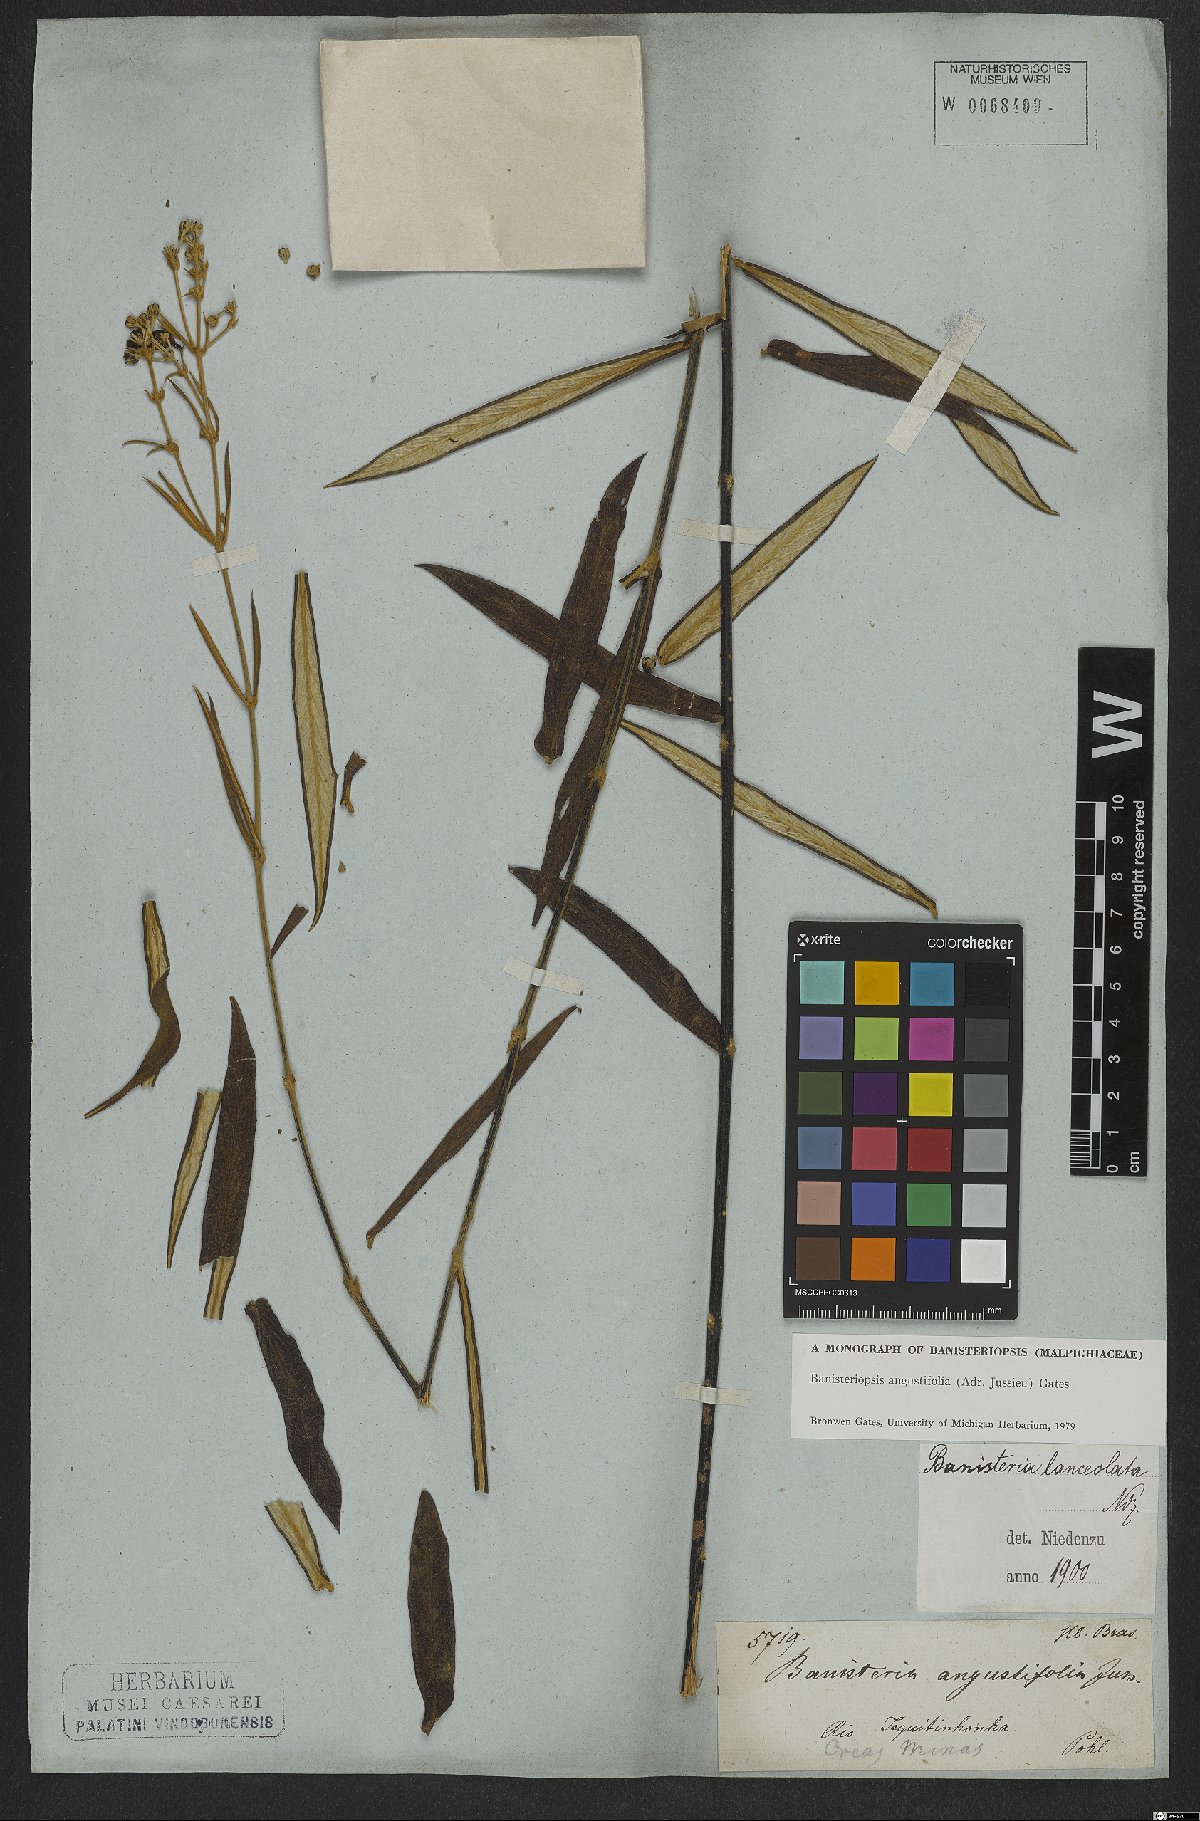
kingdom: Plantae
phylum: Tracheophyta
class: Magnoliopsida
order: Malpighiales
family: Malpighiaceae
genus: Banisteriopsis
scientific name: Banisteriopsis angustifolia
